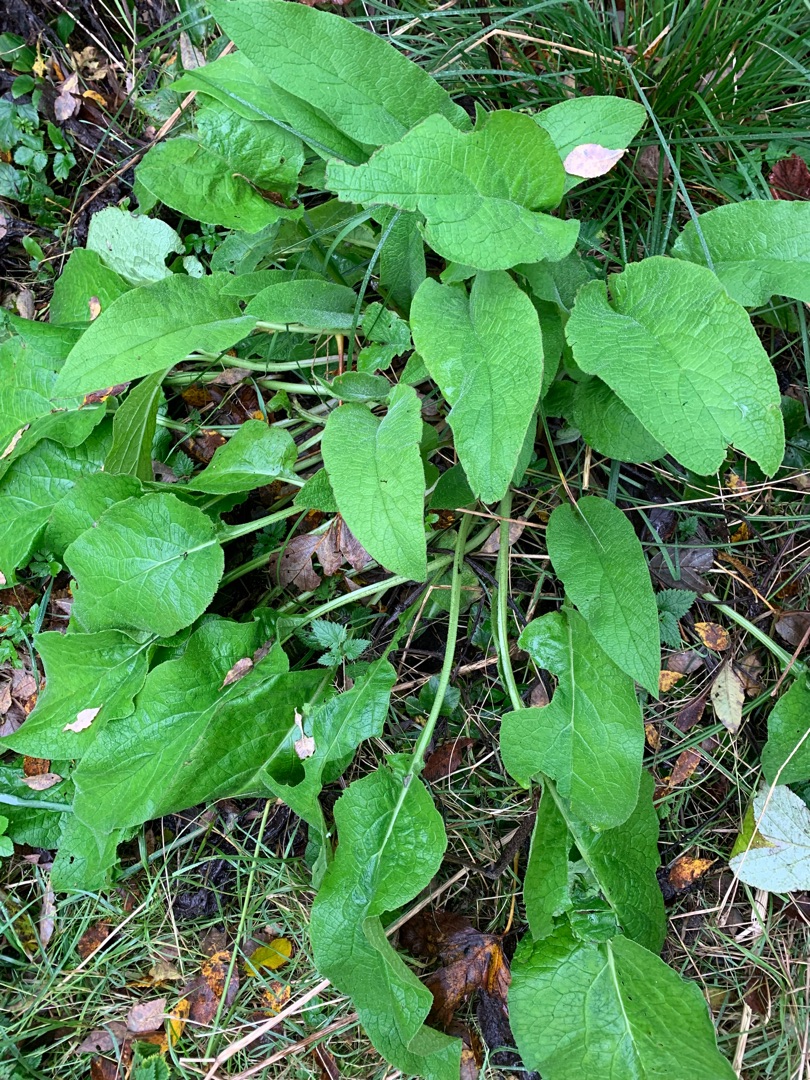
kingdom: Plantae
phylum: Tracheophyta
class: Magnoliopsida
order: Caryophyllales
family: Polygonaceae
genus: Bistorta
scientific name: Bistorta officinalis
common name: Slangeurt
